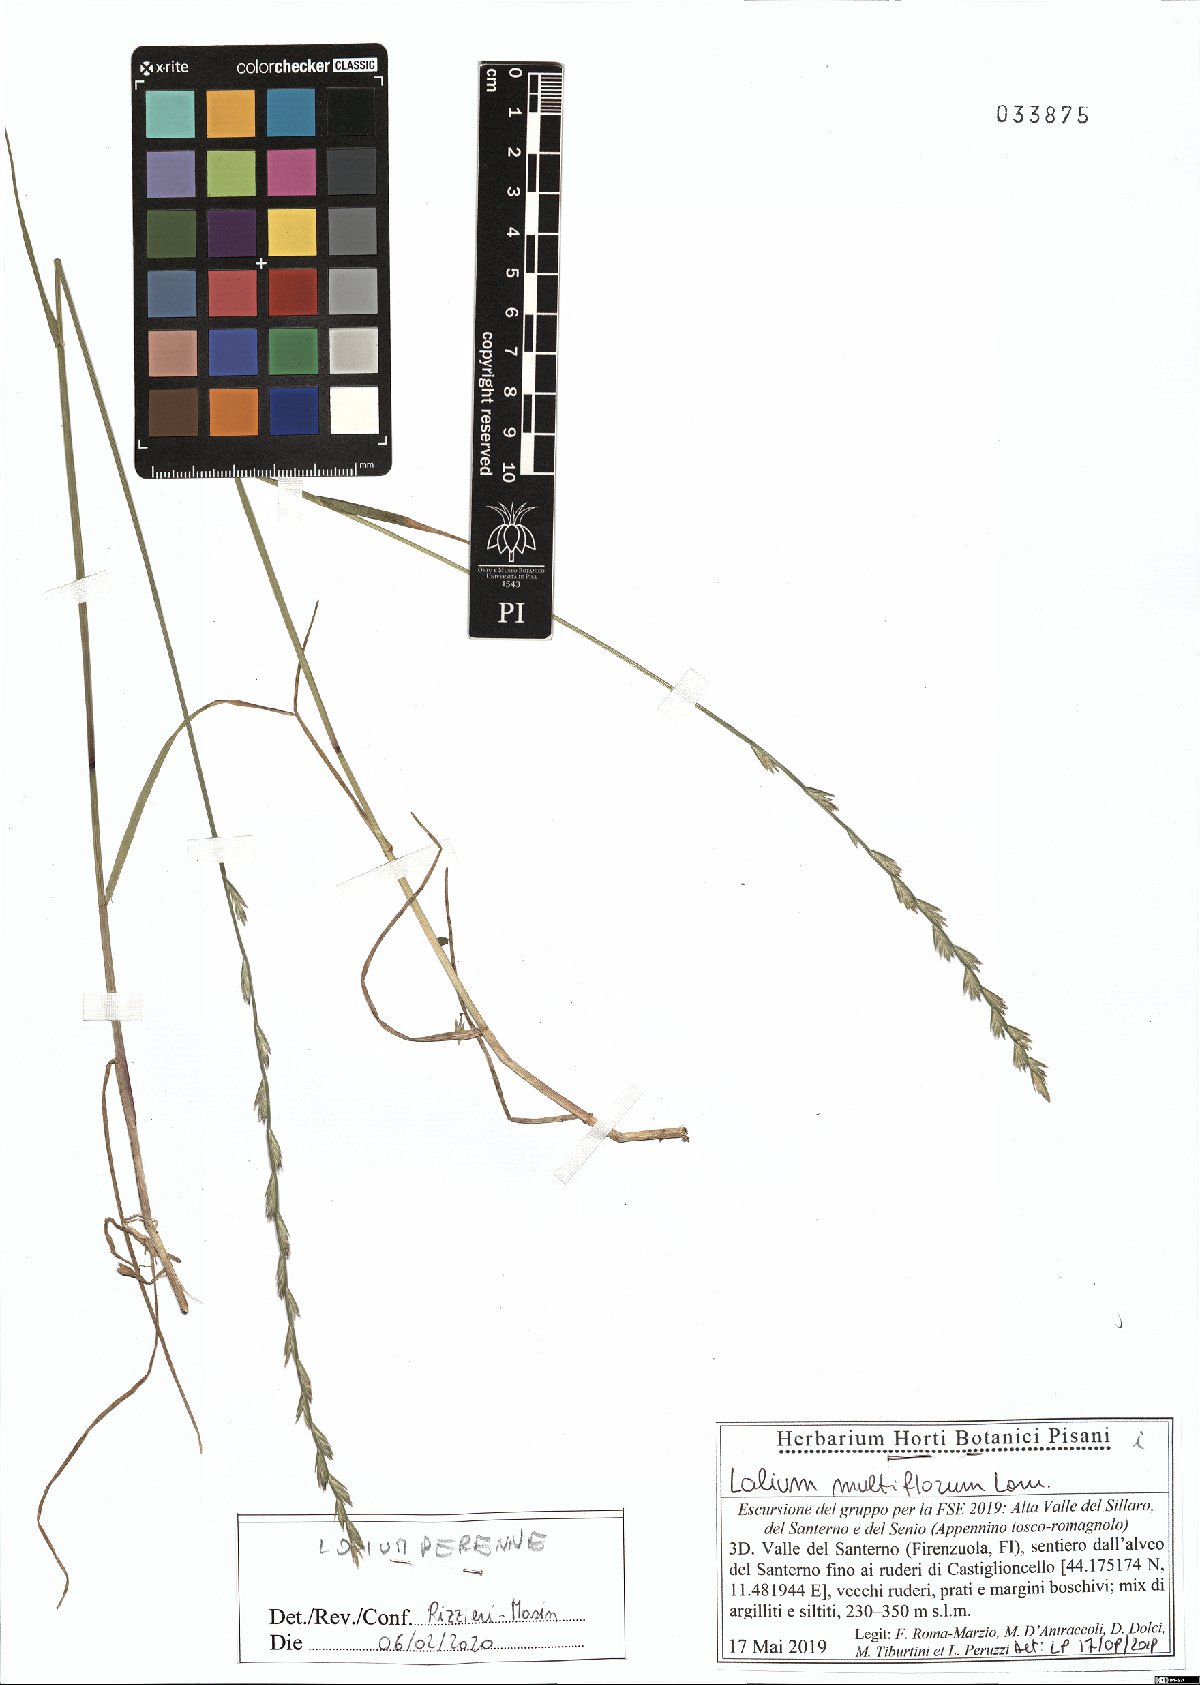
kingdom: Plantae
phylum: Tracheophyta
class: Liliopsida
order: Poales
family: Poaceae
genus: Lolium
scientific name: Lolium perenne
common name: Perennial ryegrass
